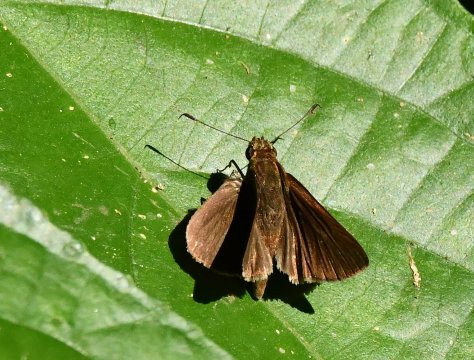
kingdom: Animalia
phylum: Arthropoda
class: Insecta
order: Lepidoptera
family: Hesperiidae
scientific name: Hesperiidae
